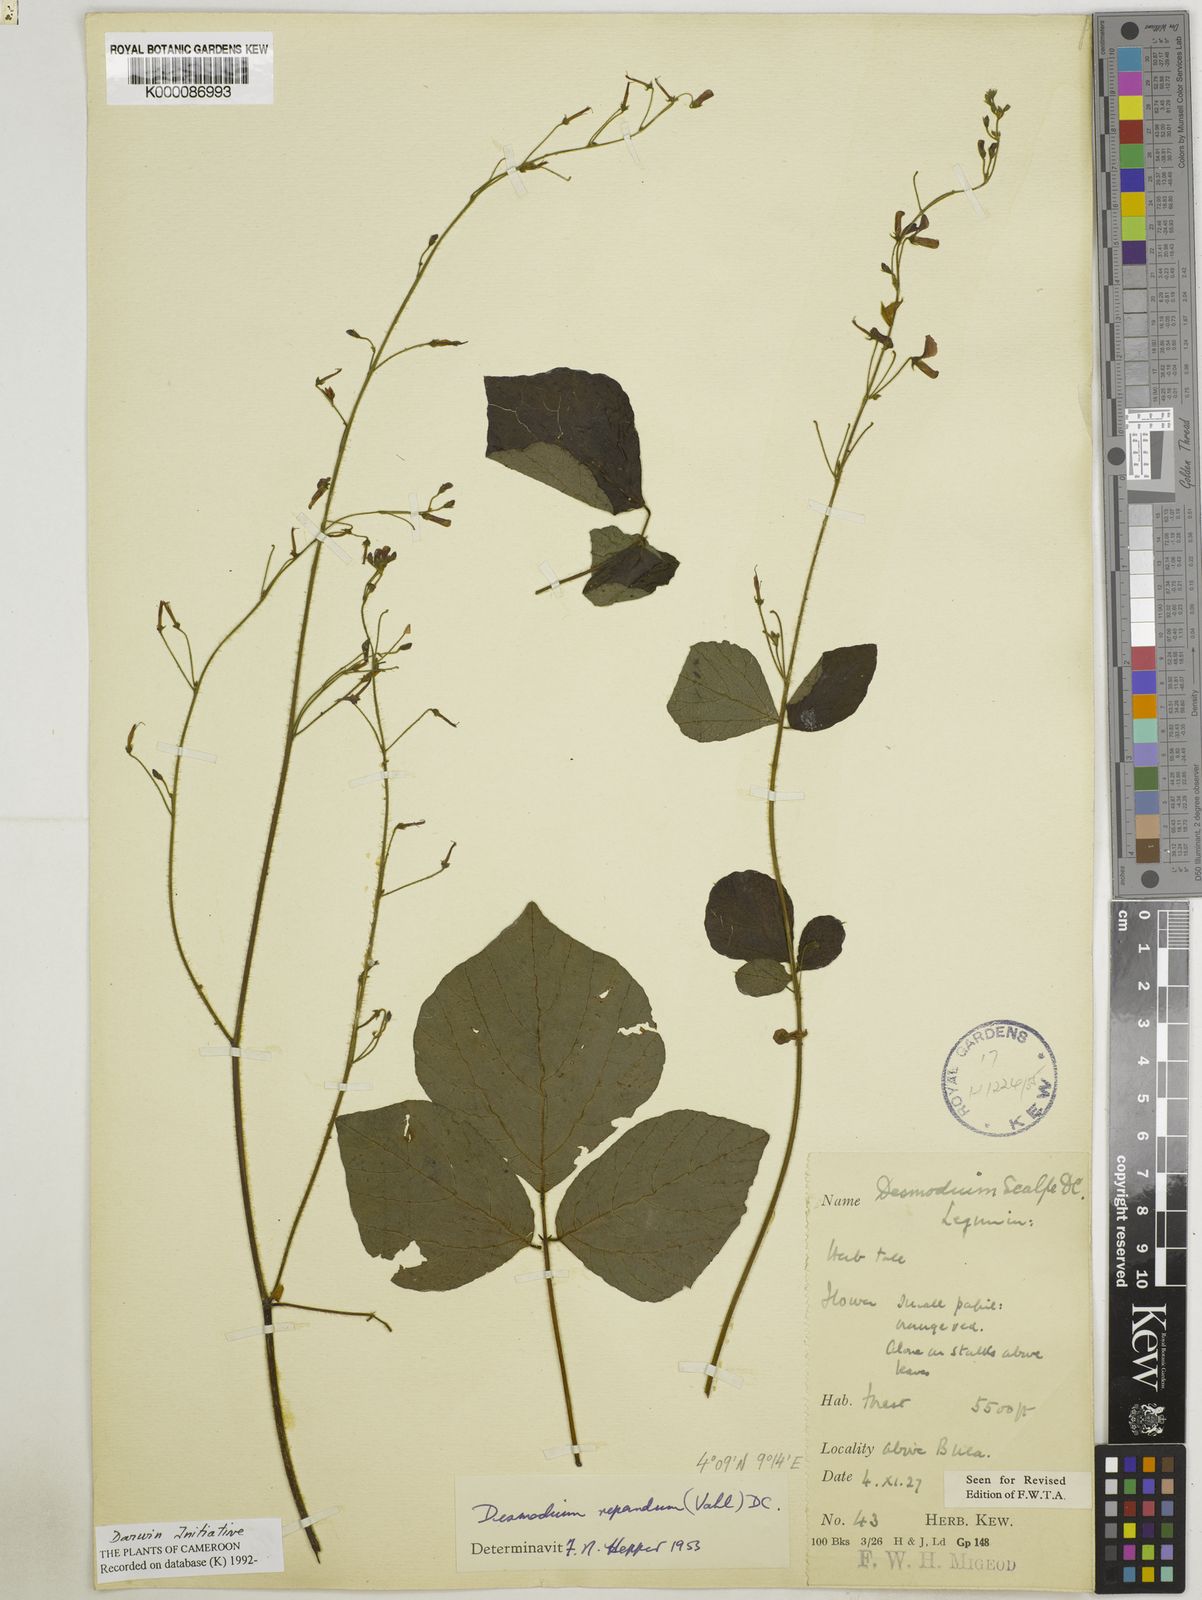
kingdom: Plantae
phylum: Tracheophyta
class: Magnoliopsida
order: Fabales
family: Fabaceae
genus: Desmodium
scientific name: Desmodium
